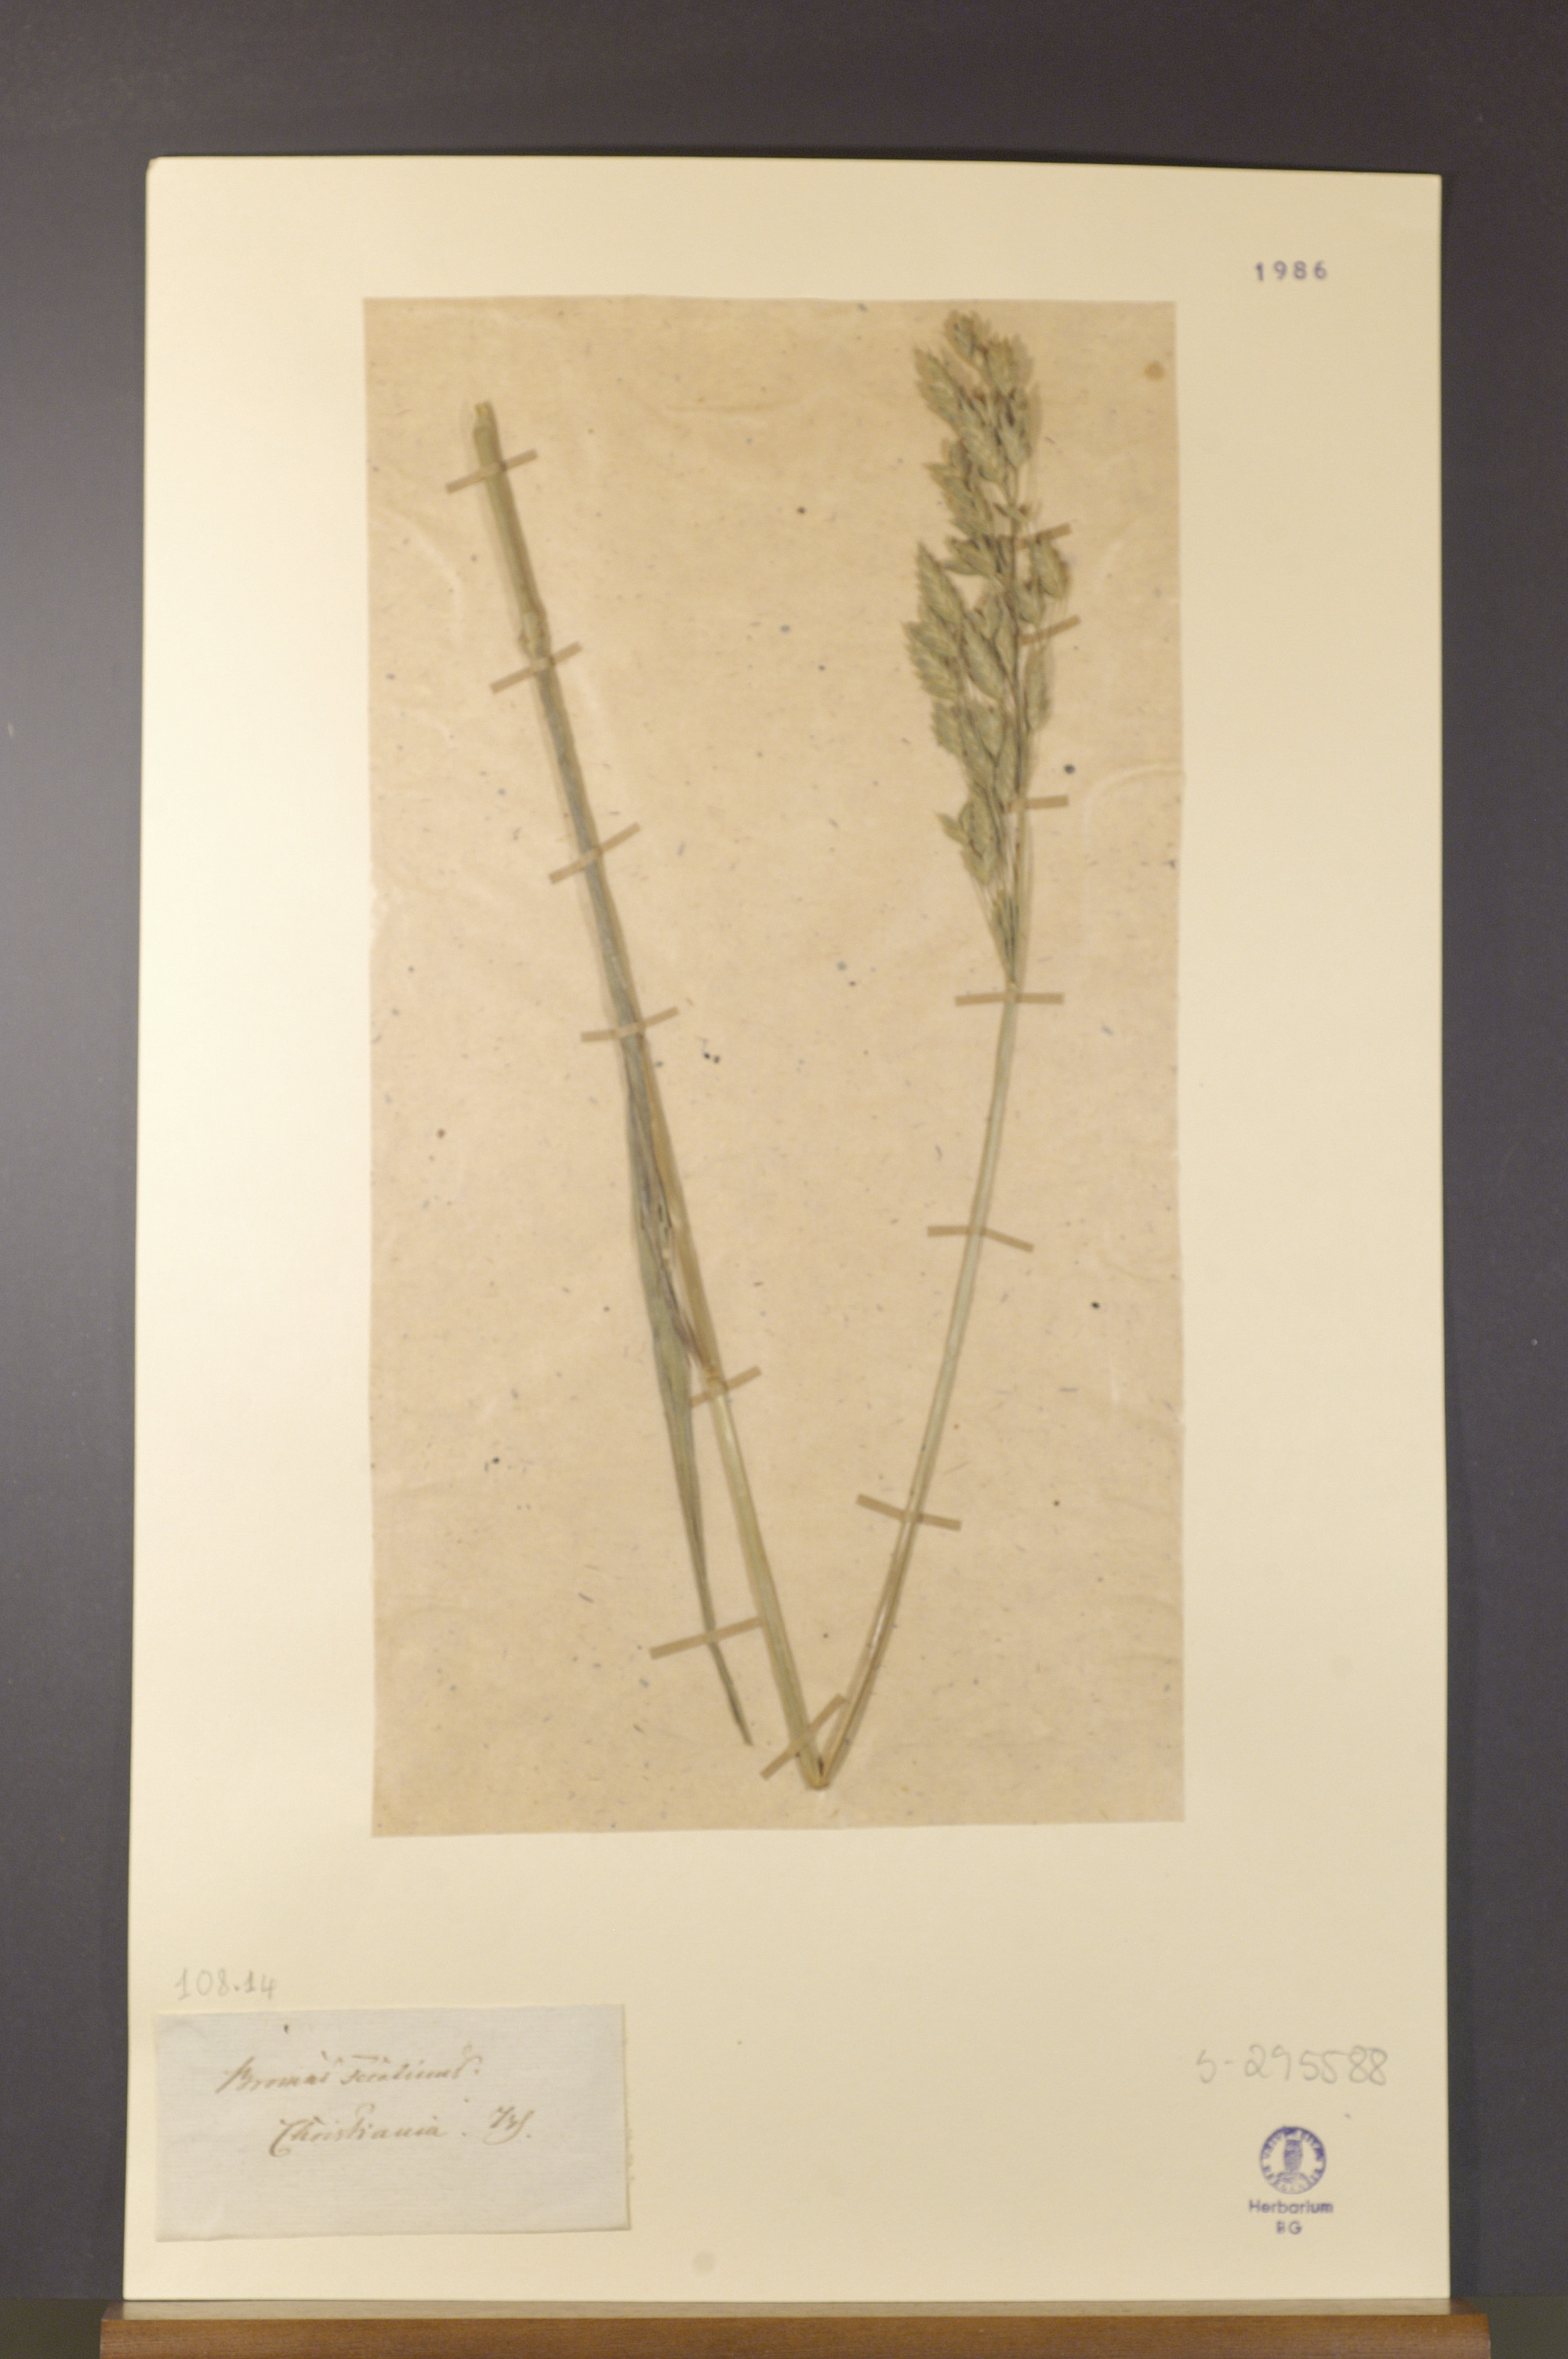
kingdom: Plantae
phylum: Tracheophyta
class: Liliopsida
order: Poales
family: Poaceae
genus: Bromus
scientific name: Bromus secalinus
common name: Rye brome
